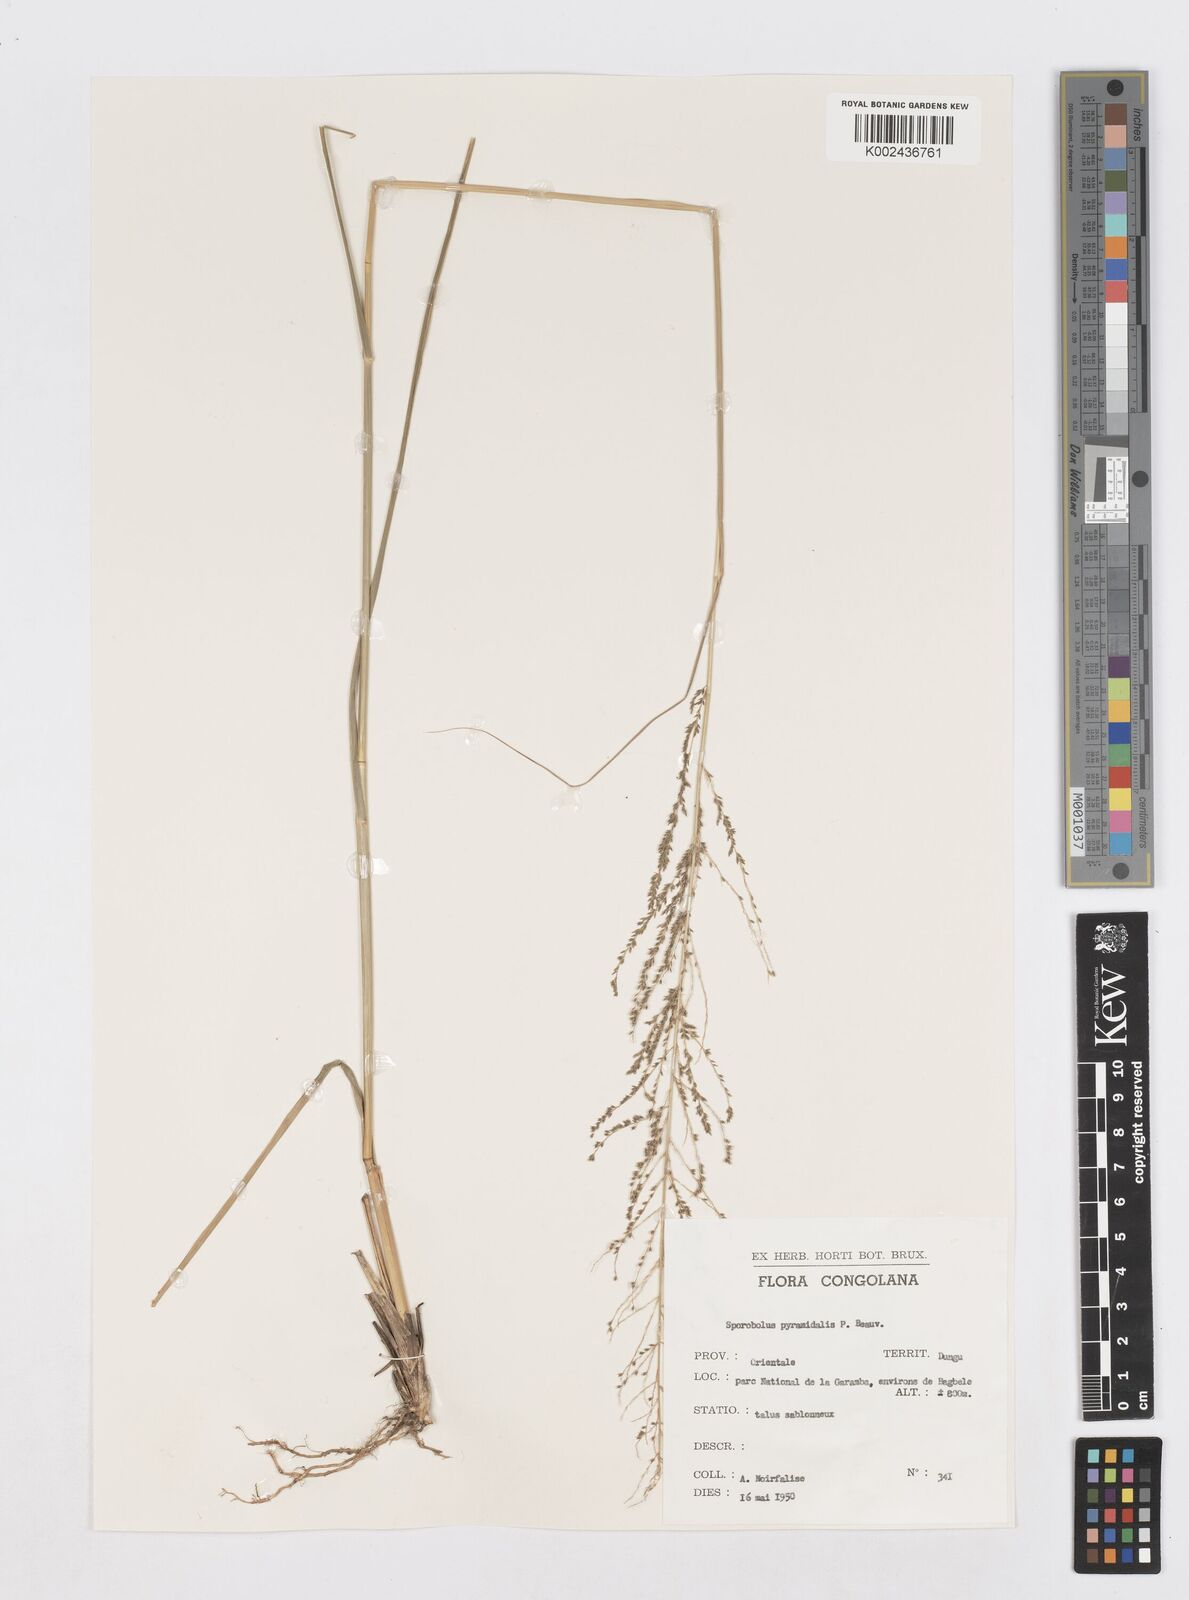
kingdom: Plantae
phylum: Tracheophyta
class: Liliopsida
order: Poales
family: Poaceae
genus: Sporobolus
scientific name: Sporobolus pyramidalis
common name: West indian dropseed
